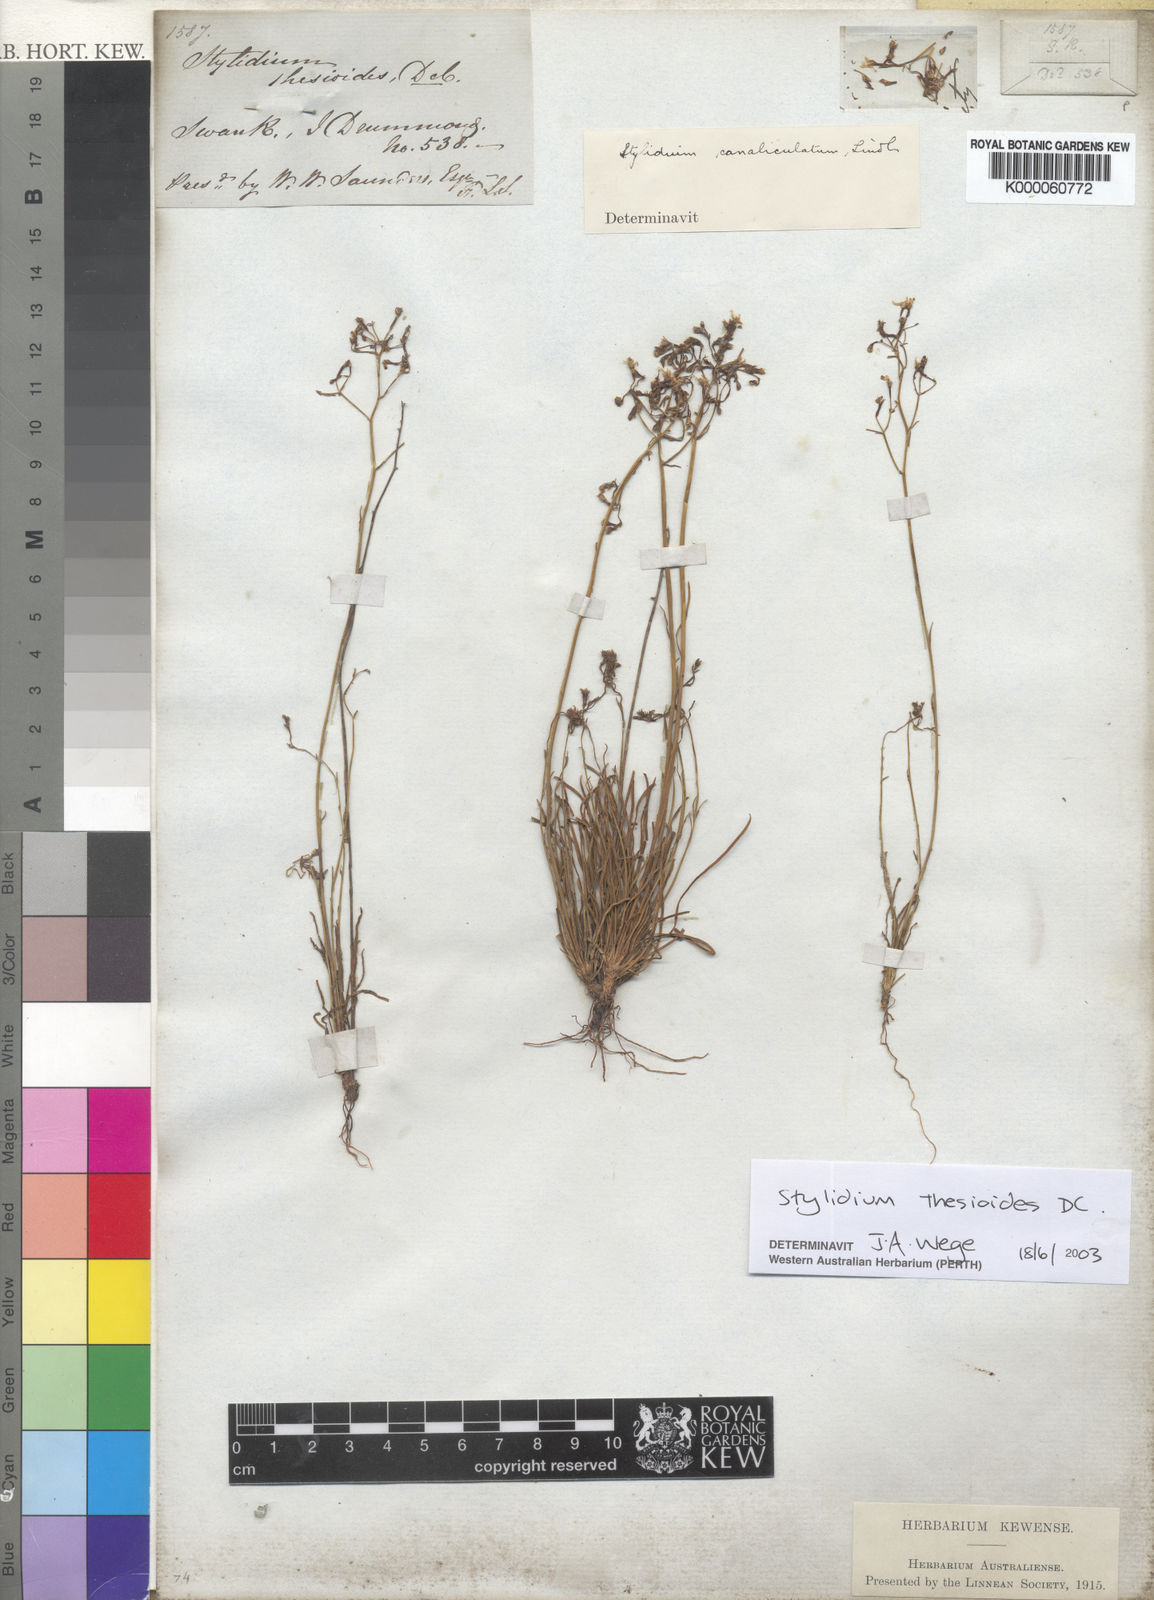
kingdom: Plantae
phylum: Tracheophyta
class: Magnoliopsida
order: Asterales
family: Stylidiaceae
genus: Stylidium
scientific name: Stylidium thesioides
